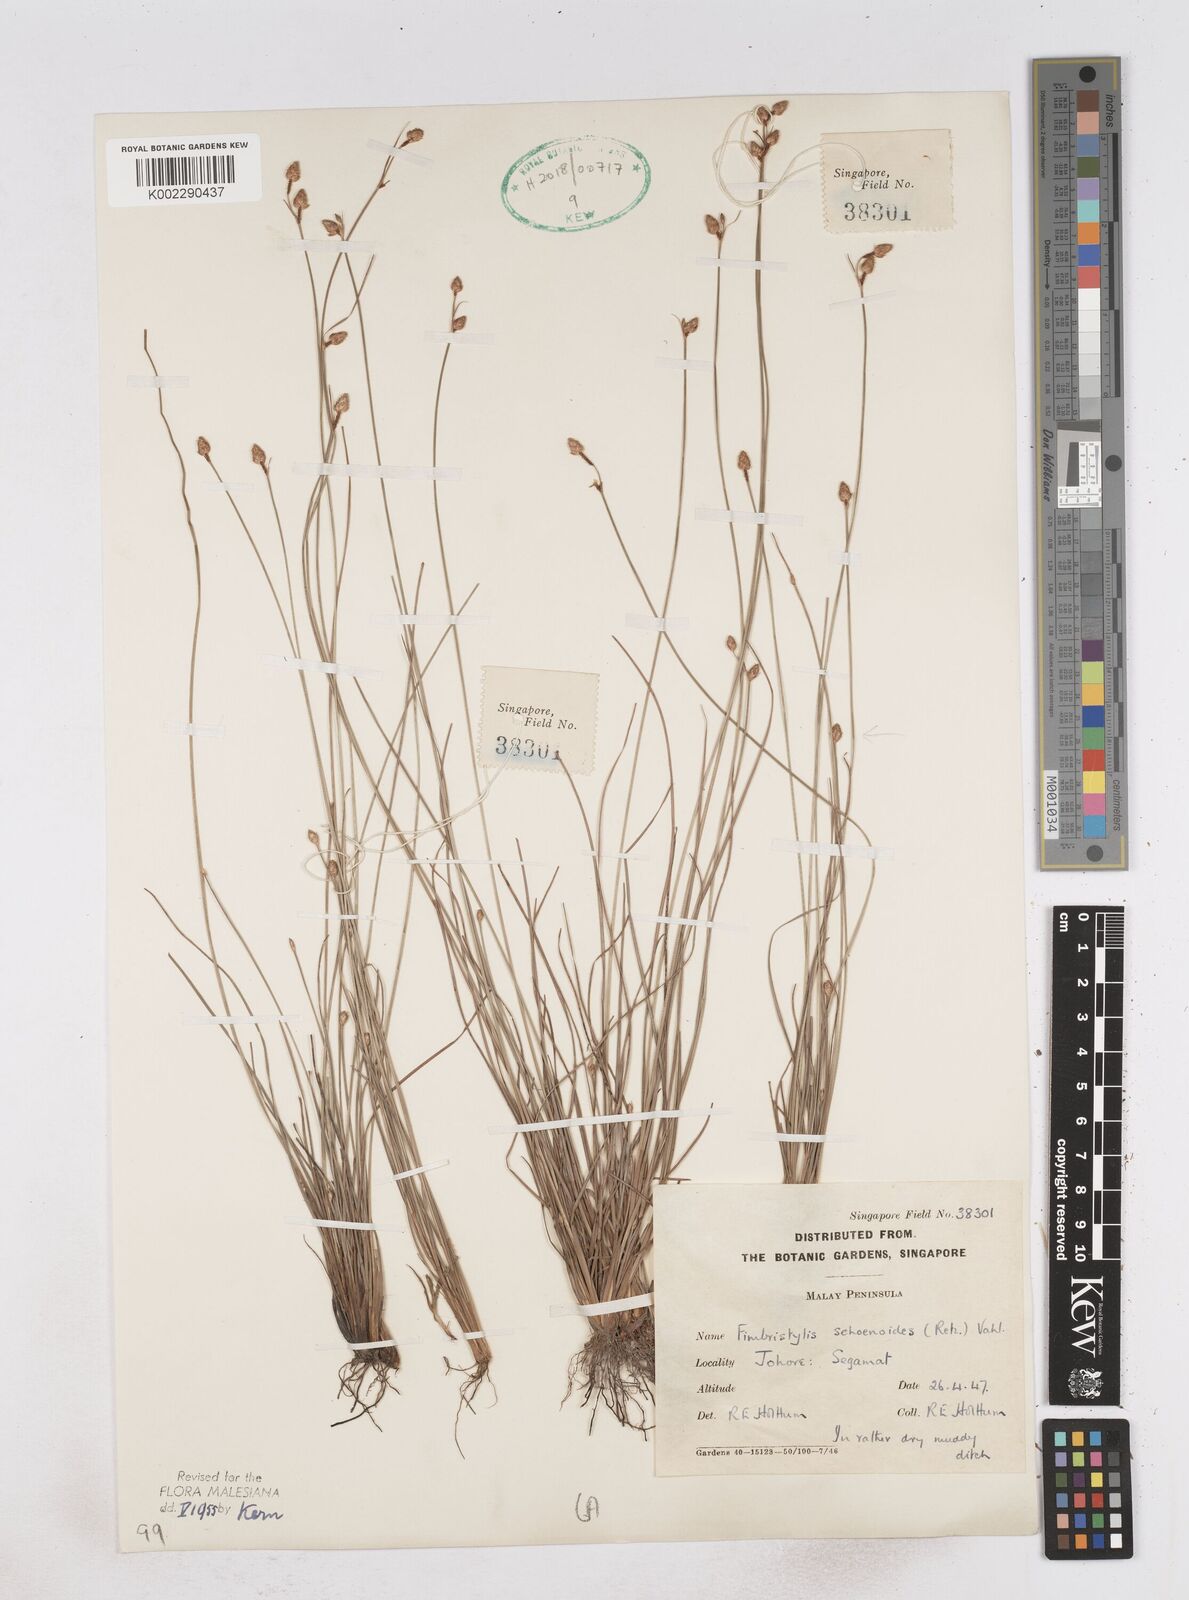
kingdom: Plantae
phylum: Tracheophyta
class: Liliopsida
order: Poales
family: Cyperaceae
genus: Fimbristylis
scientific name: Fimbristylis schoenoides
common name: Ditch fimbry
